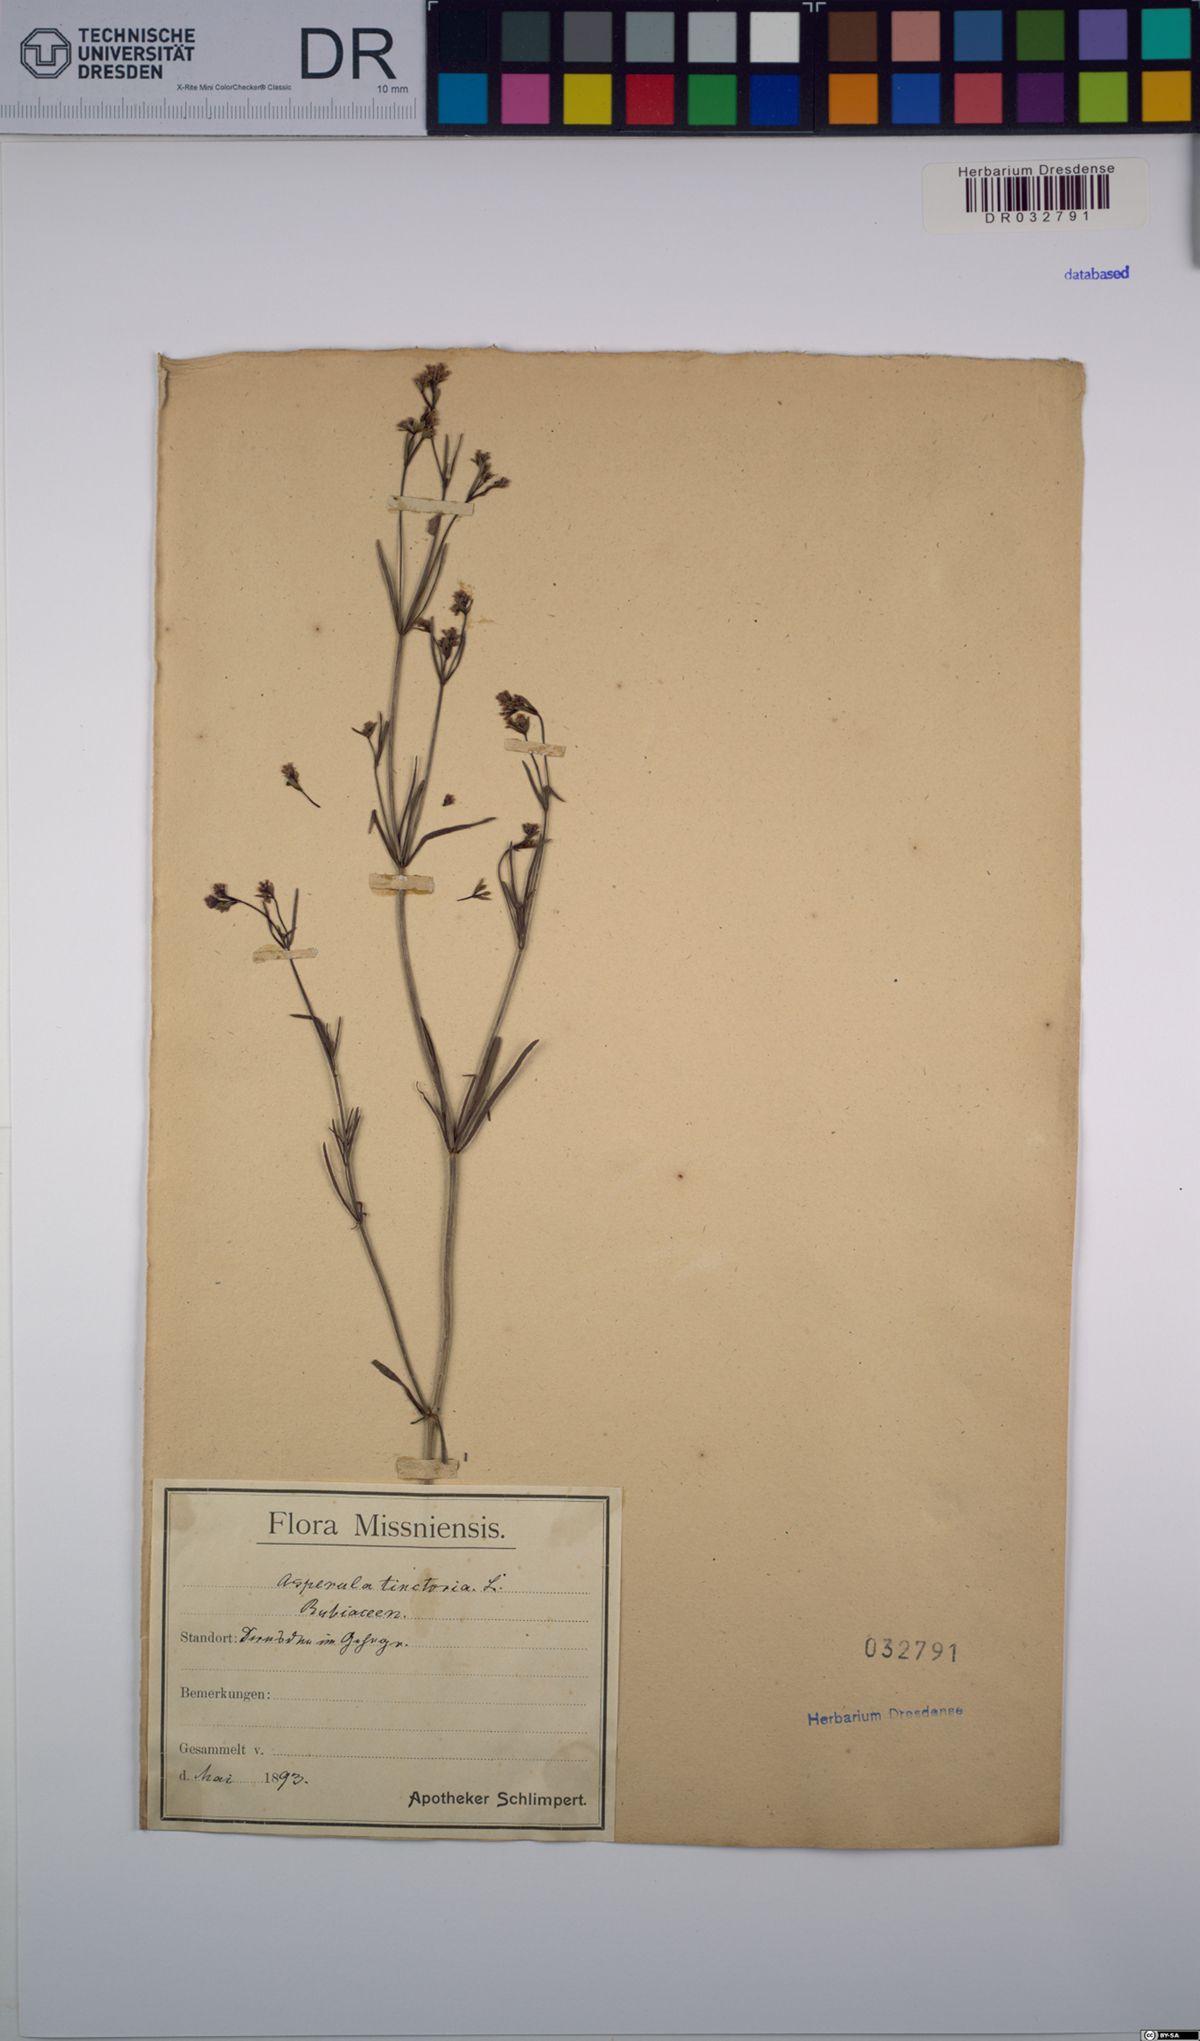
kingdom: Plantae
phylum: Tracheophyta
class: Magnoliopsida
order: Gentianales
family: Rubiaceae
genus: Asperula
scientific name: Asperula tinctoria
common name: Dyer's woodruff
